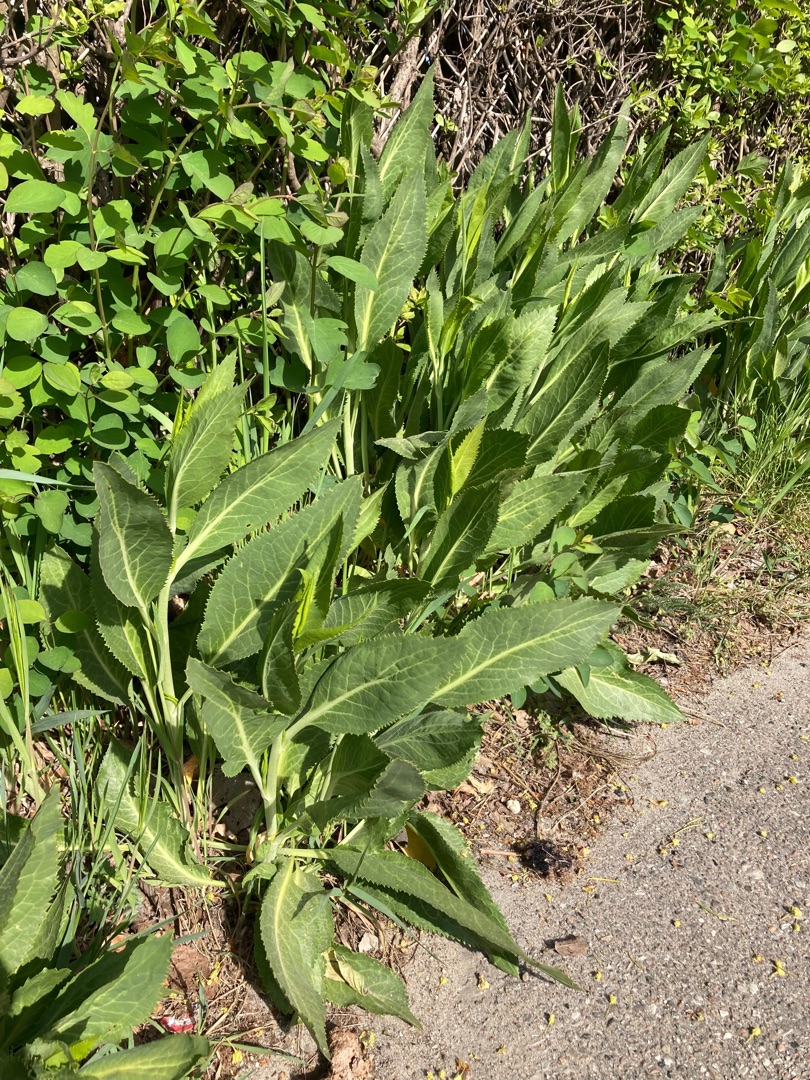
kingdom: Plantae
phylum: Tracheophyta
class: Magnoliopsida
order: Brassicales
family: Brassicaceae
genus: Lepidium
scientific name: Lepidium latifolium
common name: Strand-karse
